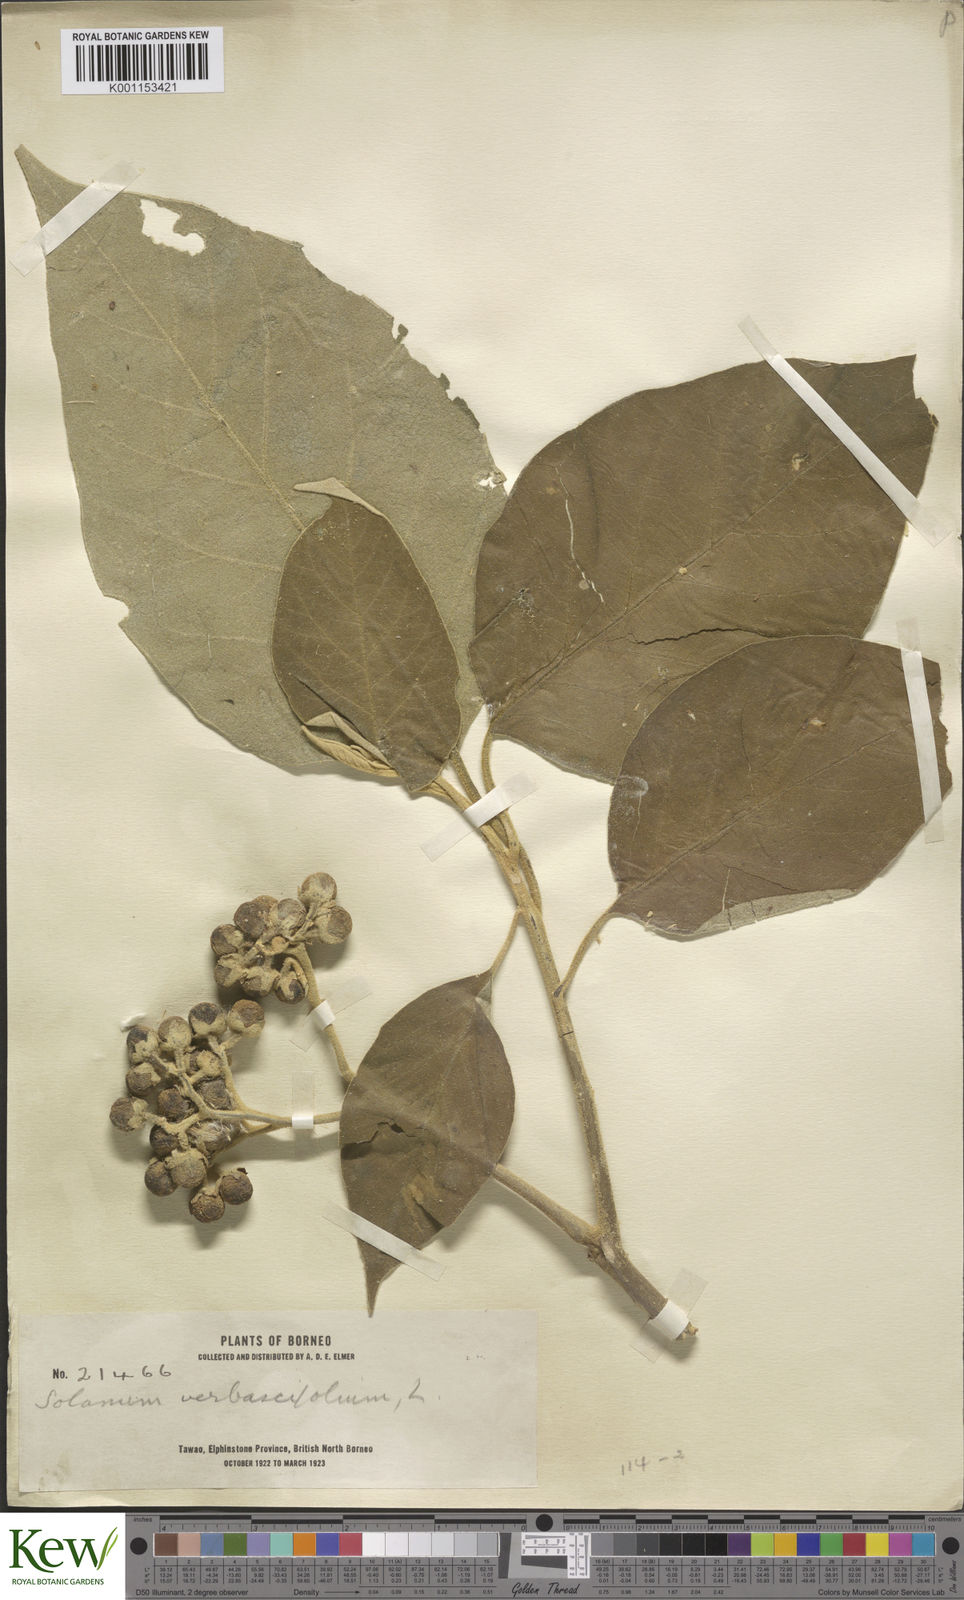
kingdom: Plantae
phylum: Tracheophyta
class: Magnoliopsida
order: Solanales
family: Solanaceae
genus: Solanum
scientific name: Solanum erianthum
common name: Tobacco-tree
